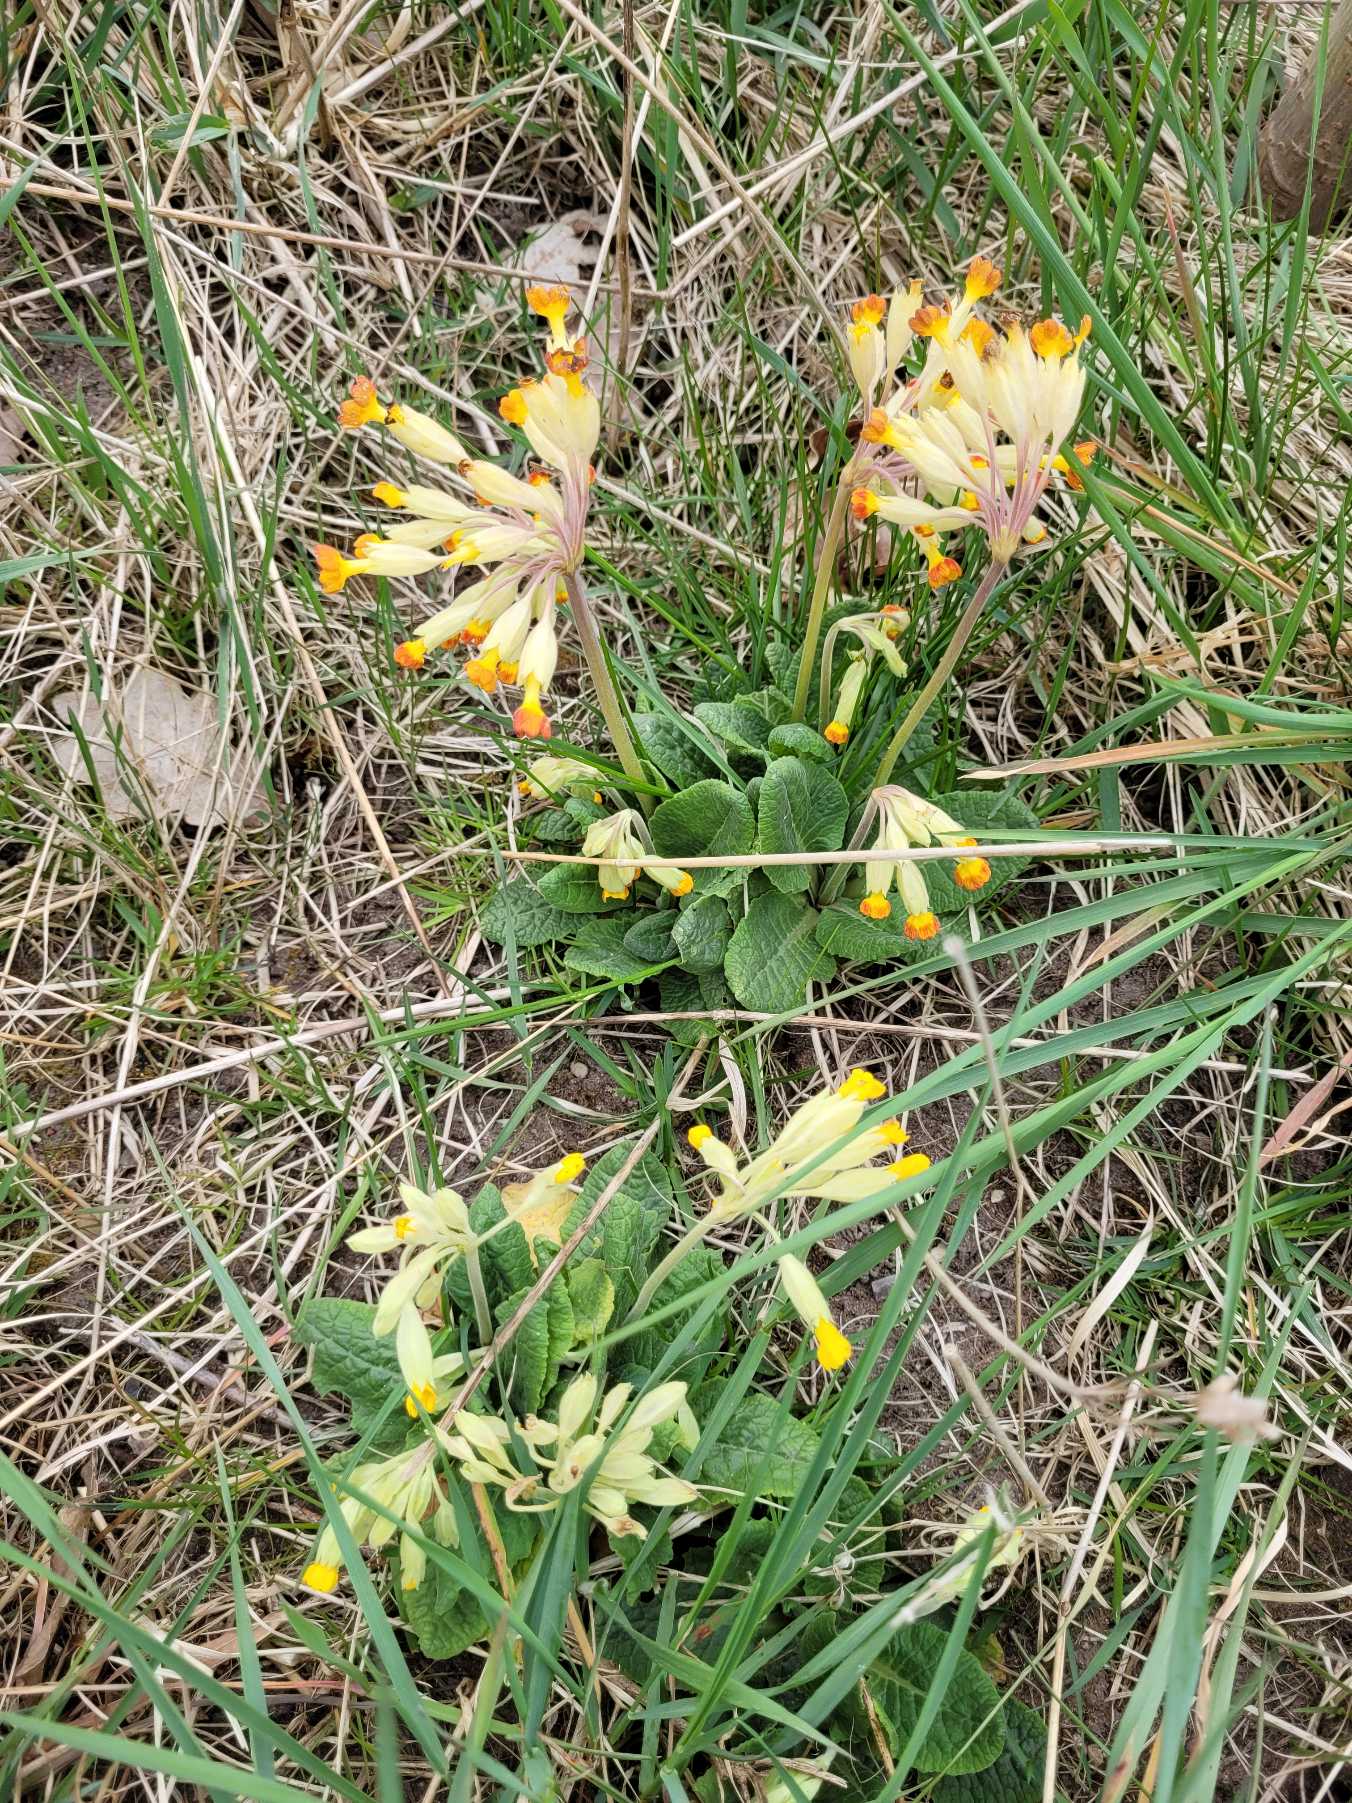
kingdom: Plantae
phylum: Tracheophyta
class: Magnoliopsida
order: Ericales
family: Primulaceae
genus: Primula
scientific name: Primula veris
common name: Hulkravet kodriver
